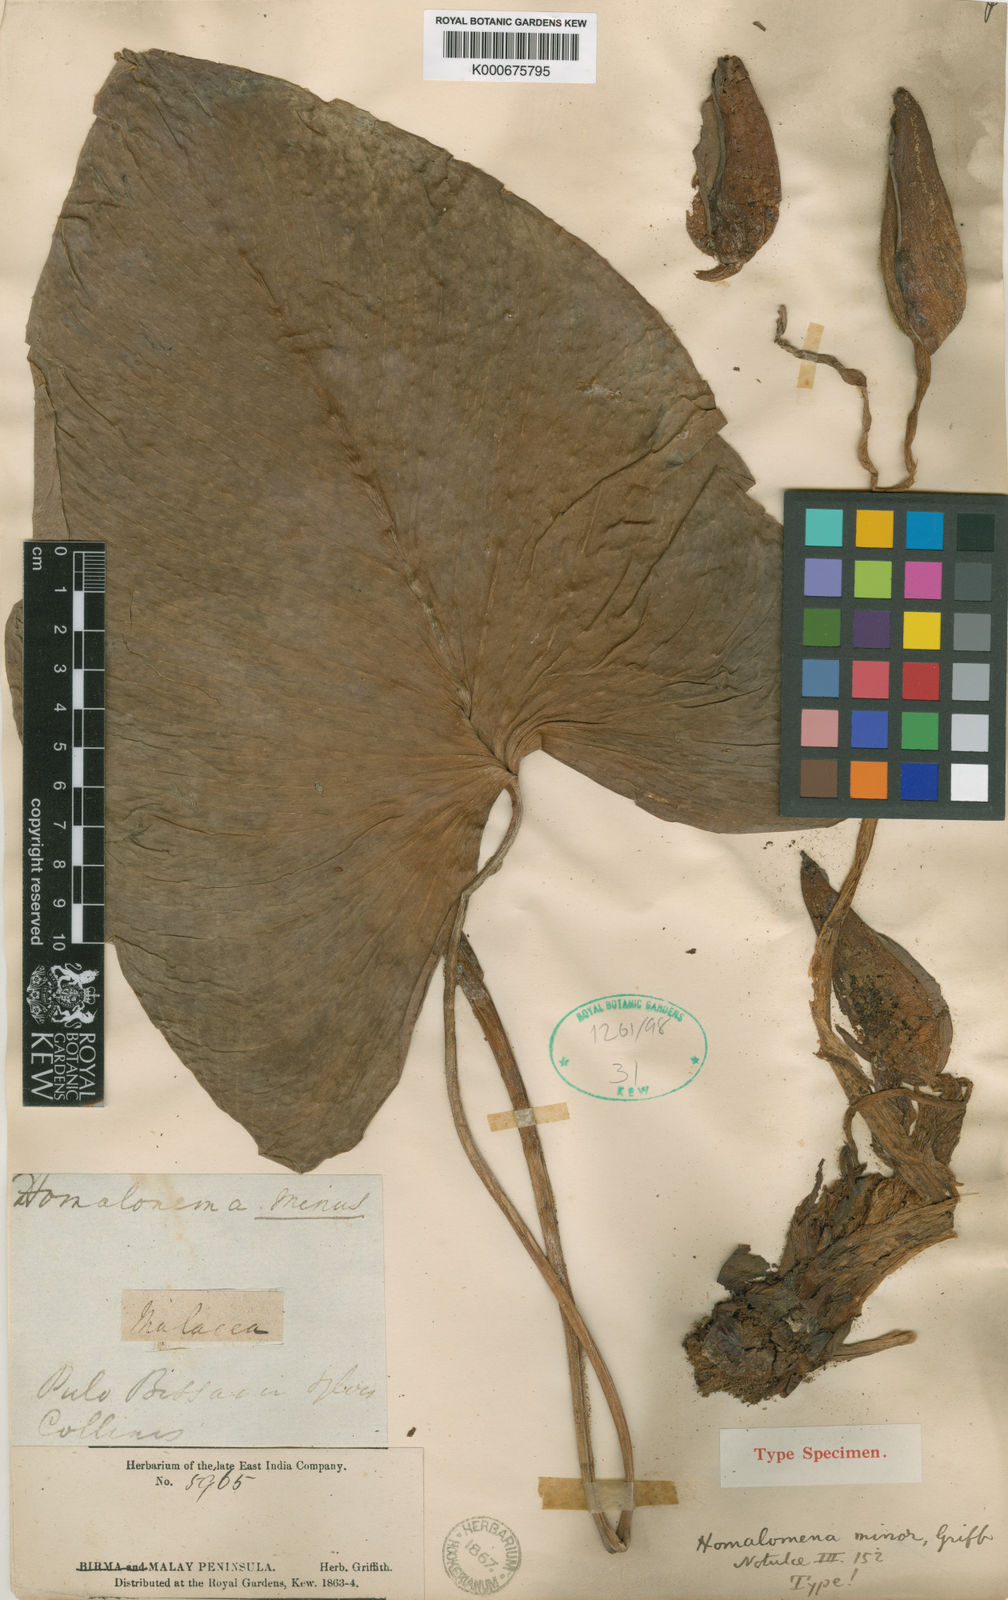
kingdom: Plantae
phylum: Tracheophyta
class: Liliopsida
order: Alismatales
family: Araceae
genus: Homalomena
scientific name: Homalomena minor
